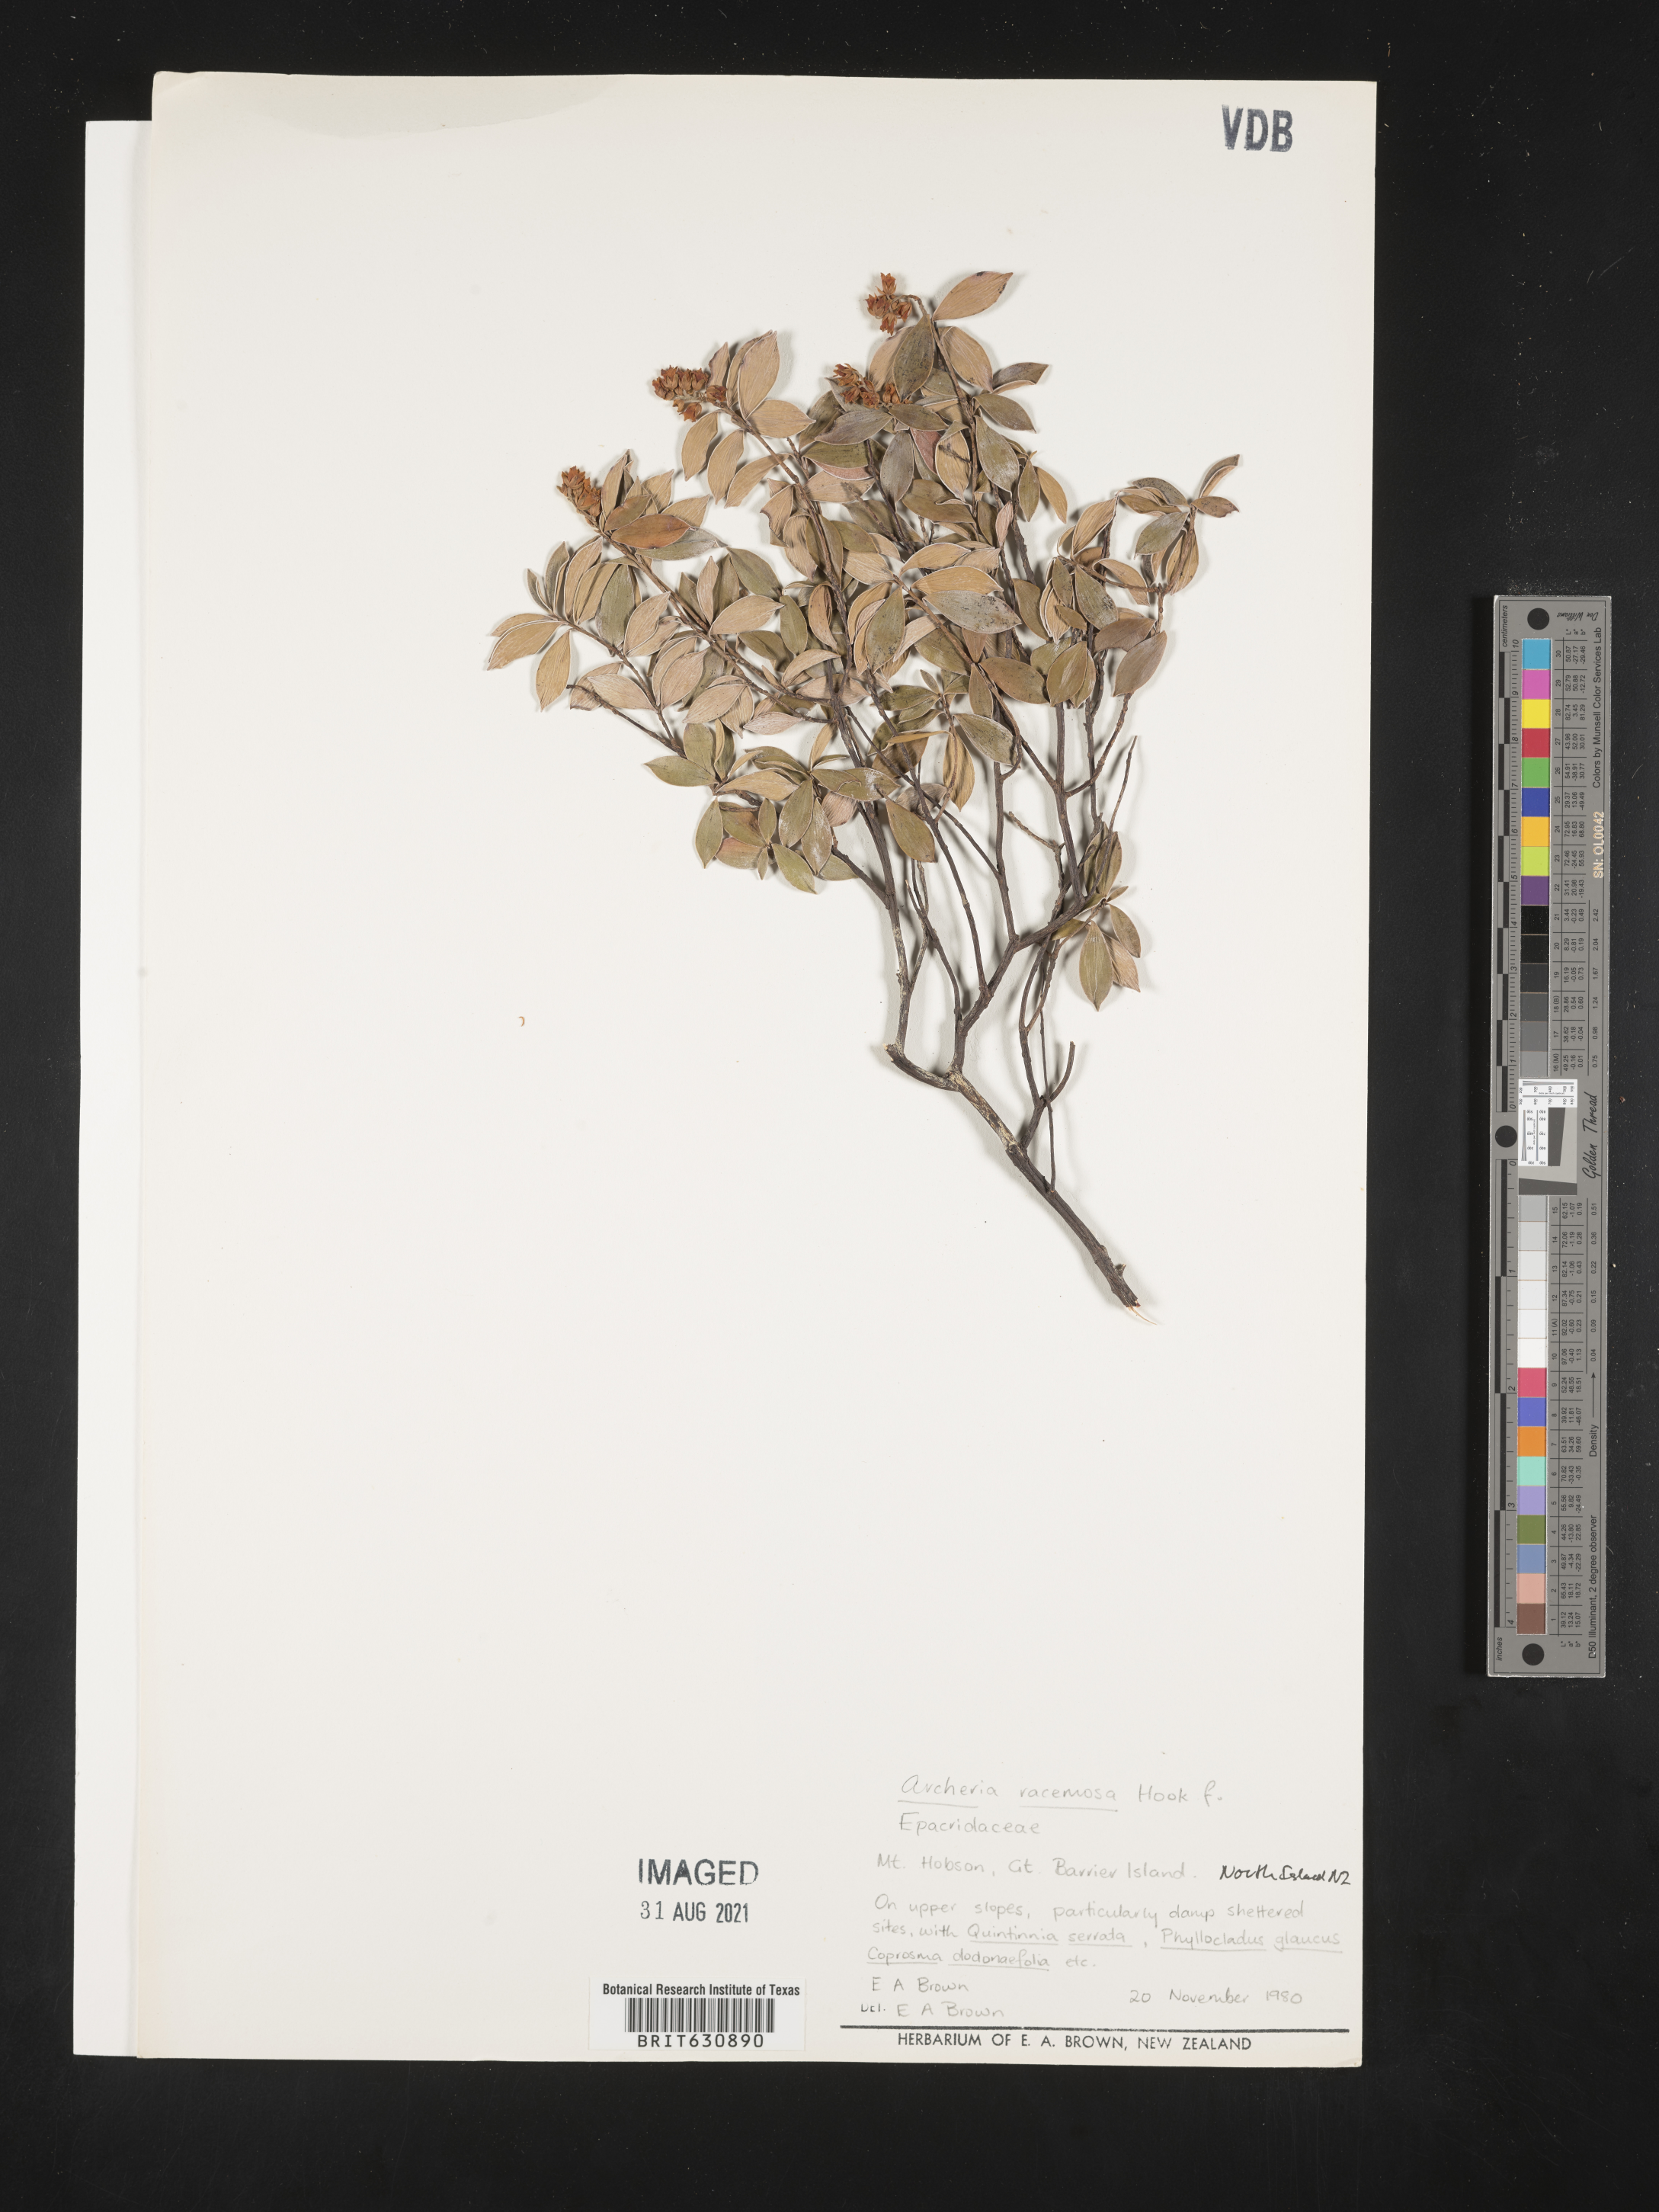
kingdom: Plantae
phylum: Tracheophyta
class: Magnoliopsida
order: Ericales
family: Ericaceae
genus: Archeria
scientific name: Archeria
